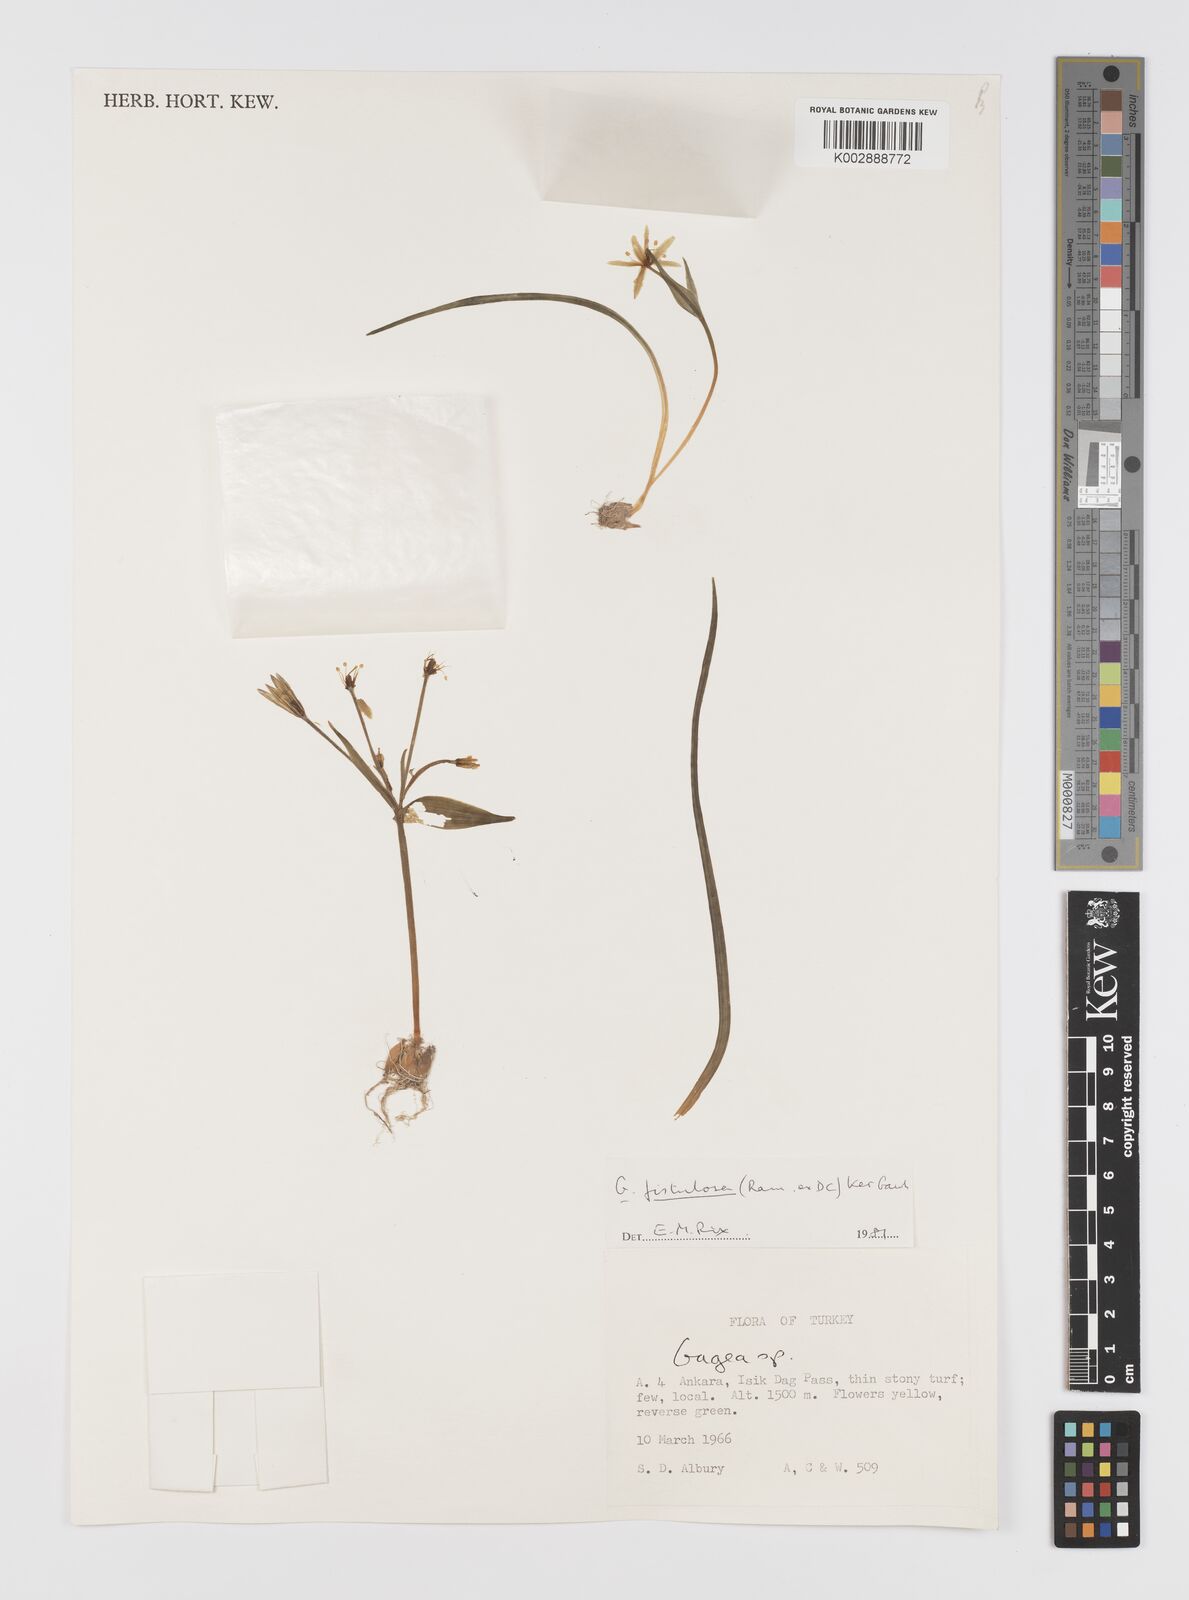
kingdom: Plantae
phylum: Tracheophyta
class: Liliopsida
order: Liliales
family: Liliaceae
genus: Gagea
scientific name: Gagea bohemica
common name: Early star-of-bethlehem
